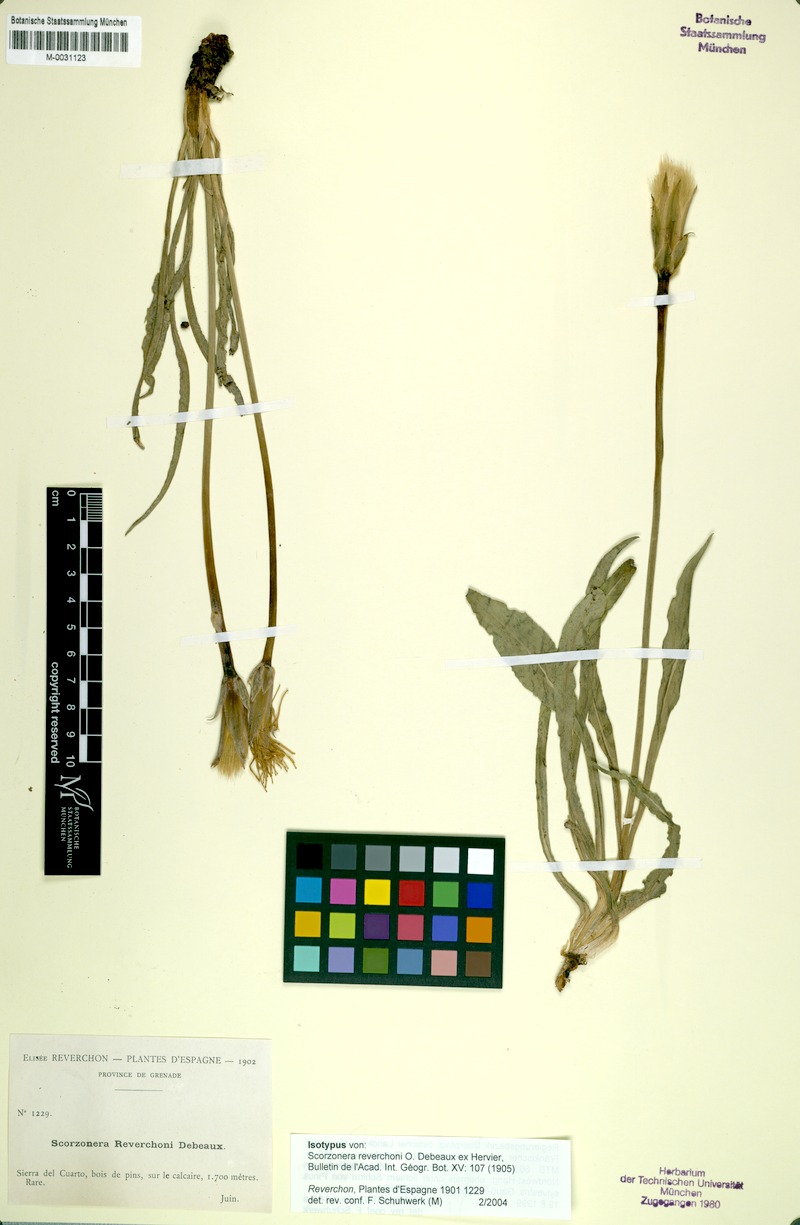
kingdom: Plantae
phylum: Tracheophyta
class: Magnoliopsida
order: Asterales
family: Asteraceae
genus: Pseudopodospermum
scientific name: Pseudopodospermum reverchonii
